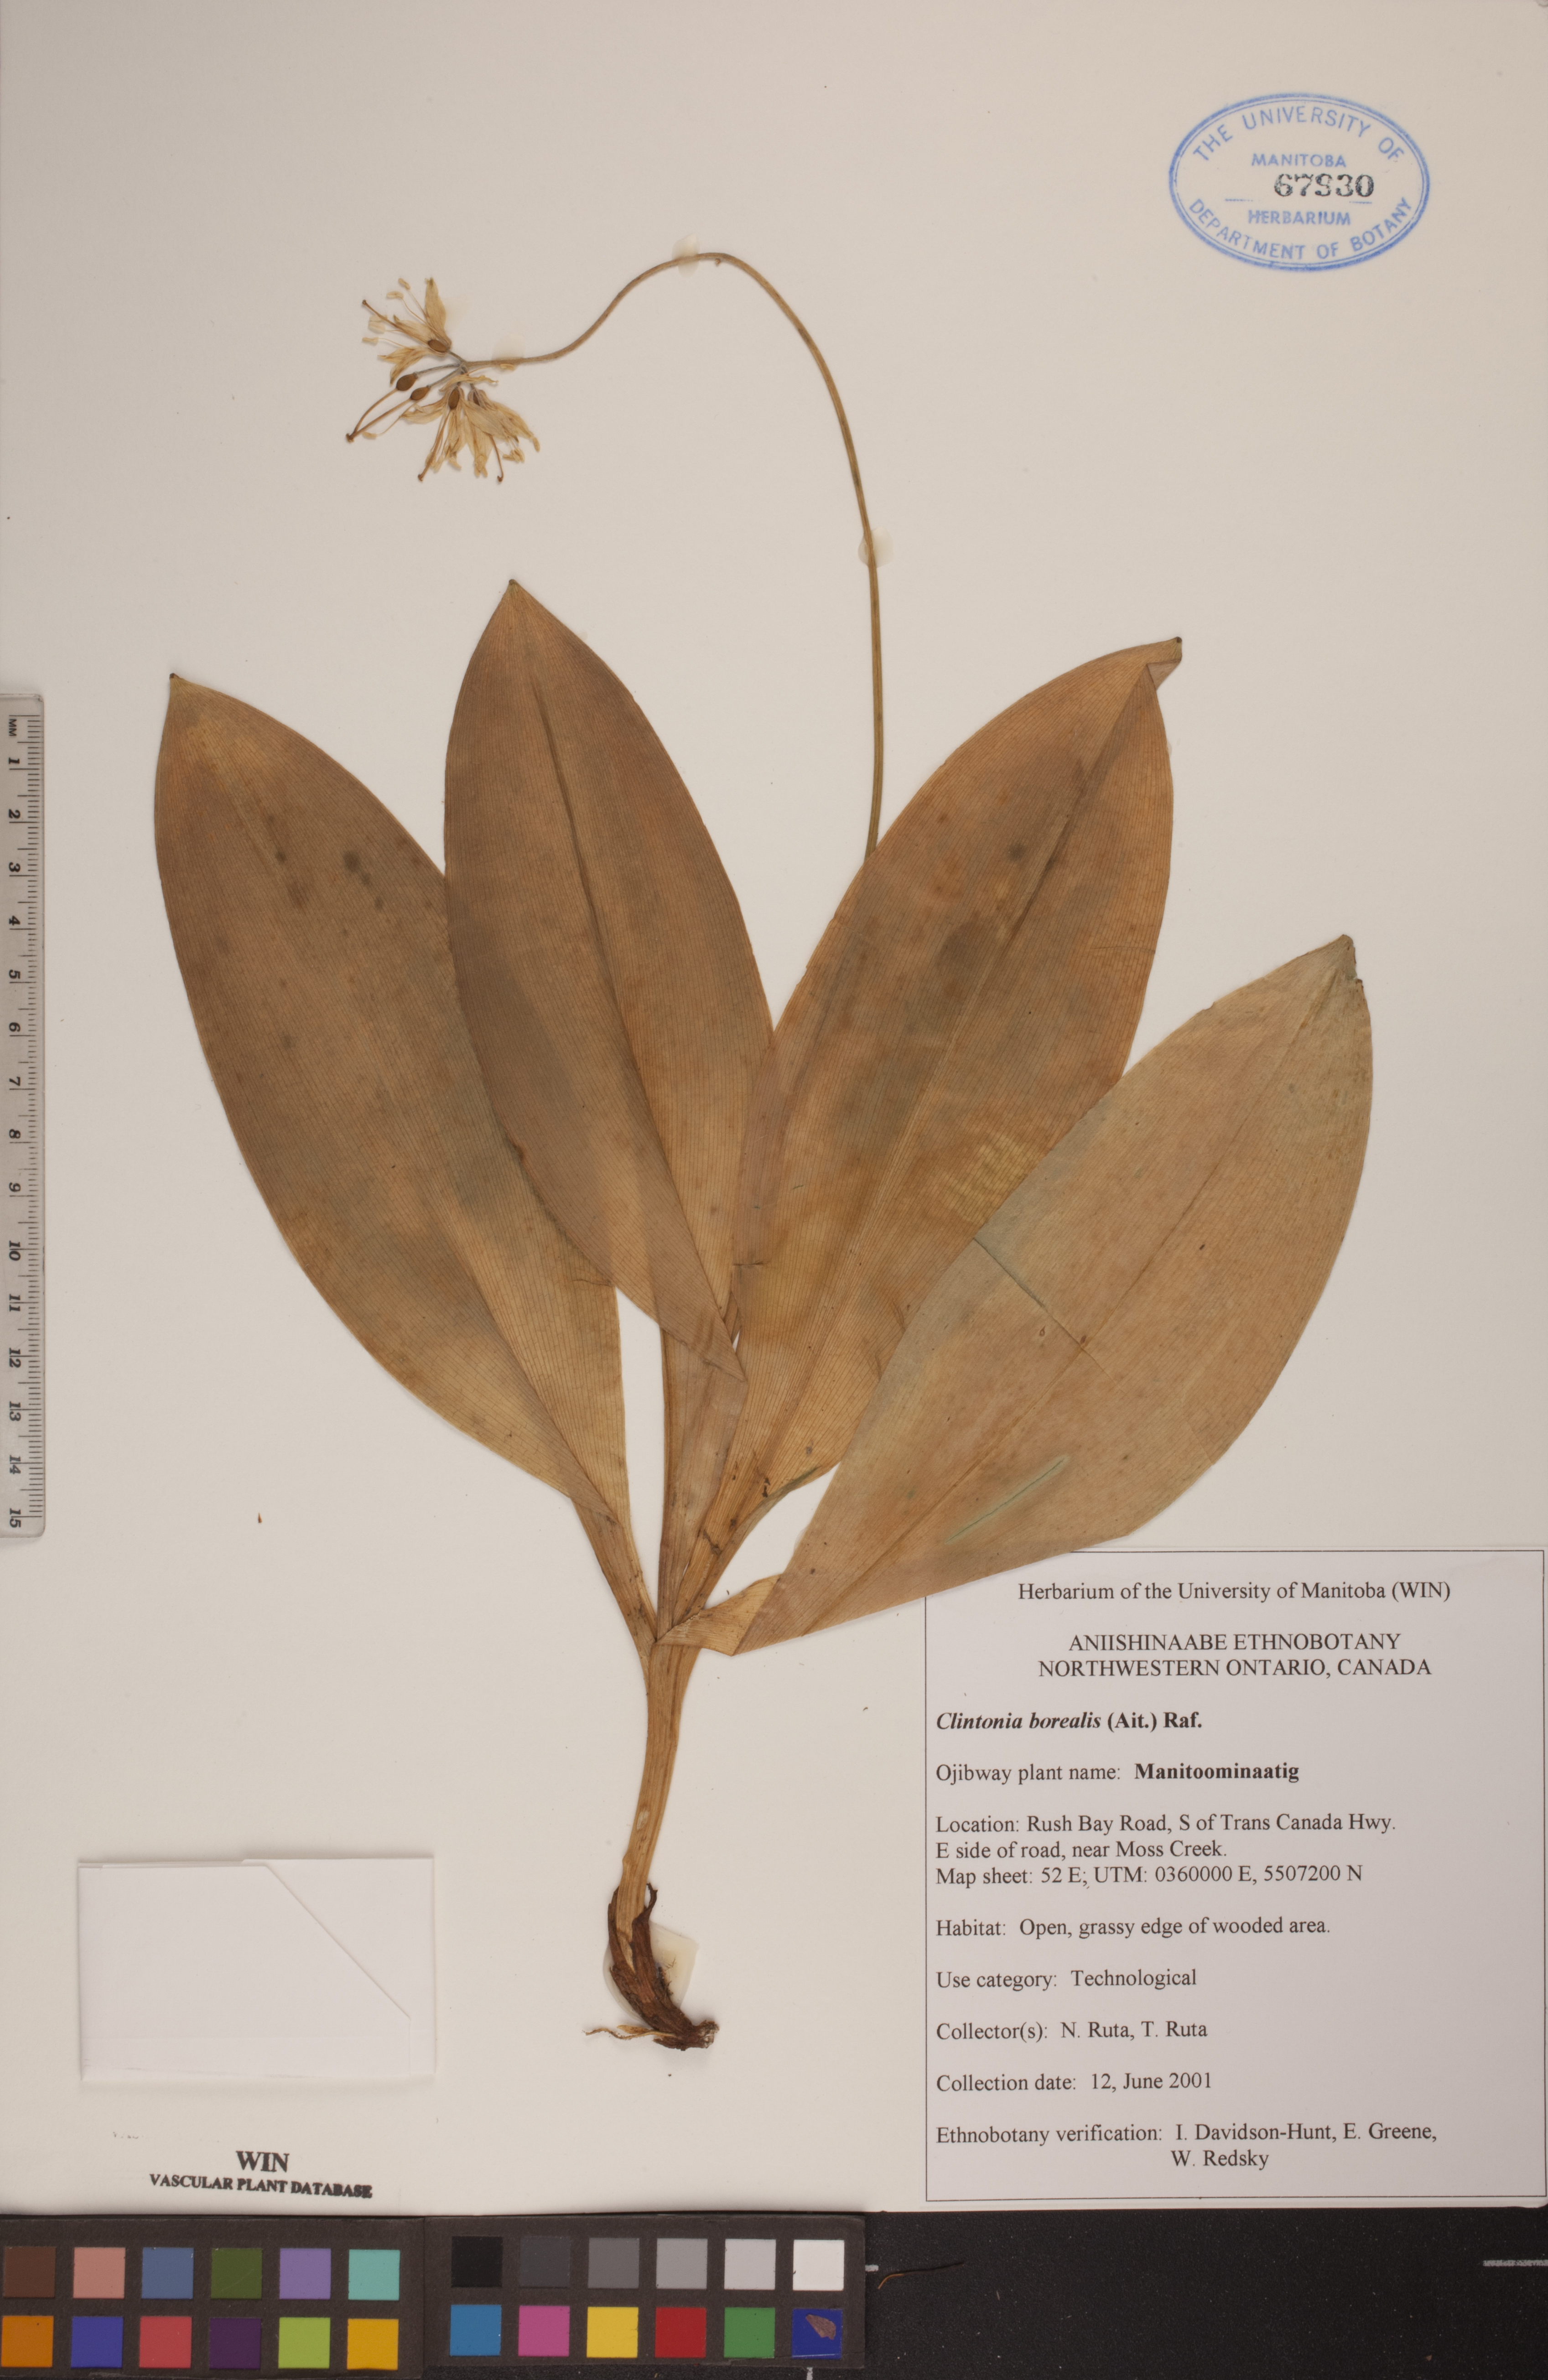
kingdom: Plantae
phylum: Tracheophyta
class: Liliopsida
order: Liliales
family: Liliaceae
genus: Clintonia
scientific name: Clintonia borealis
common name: Yellow clintonia
